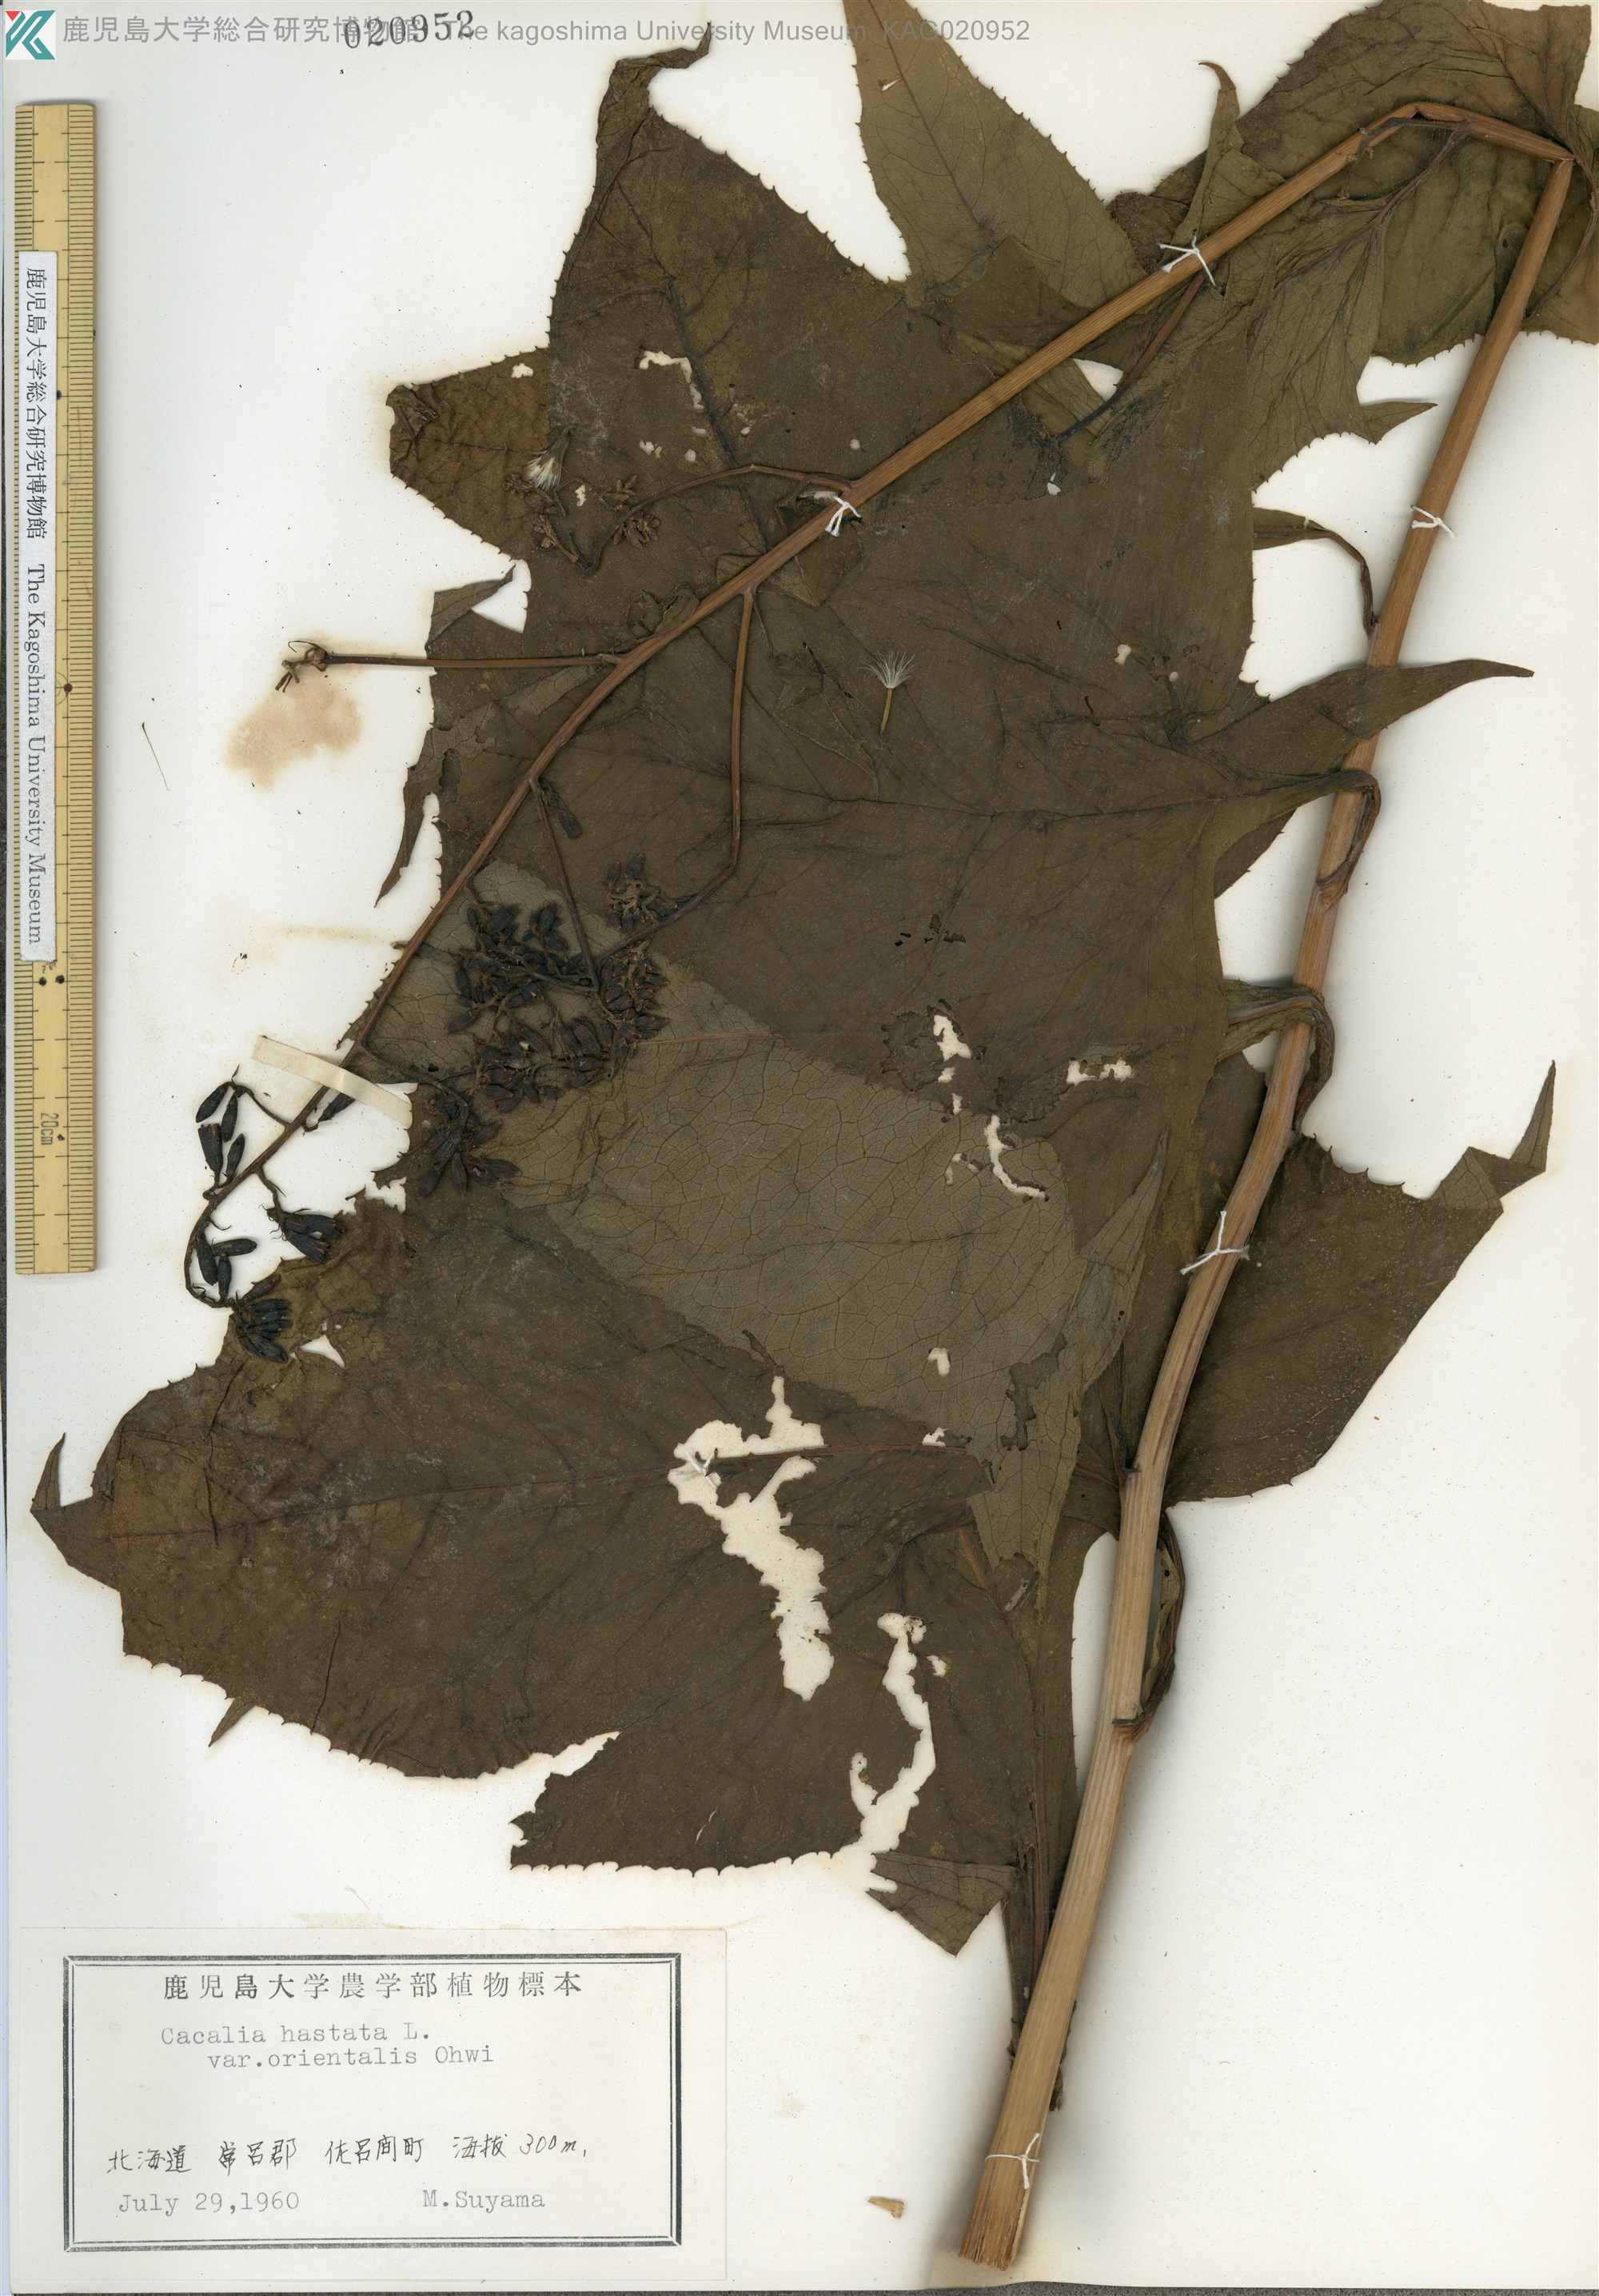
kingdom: Plantae
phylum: Tracheophyta
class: Magnoliopsida
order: Asterales
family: Asteraceae
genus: Parasenecio
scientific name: Parasenecio
